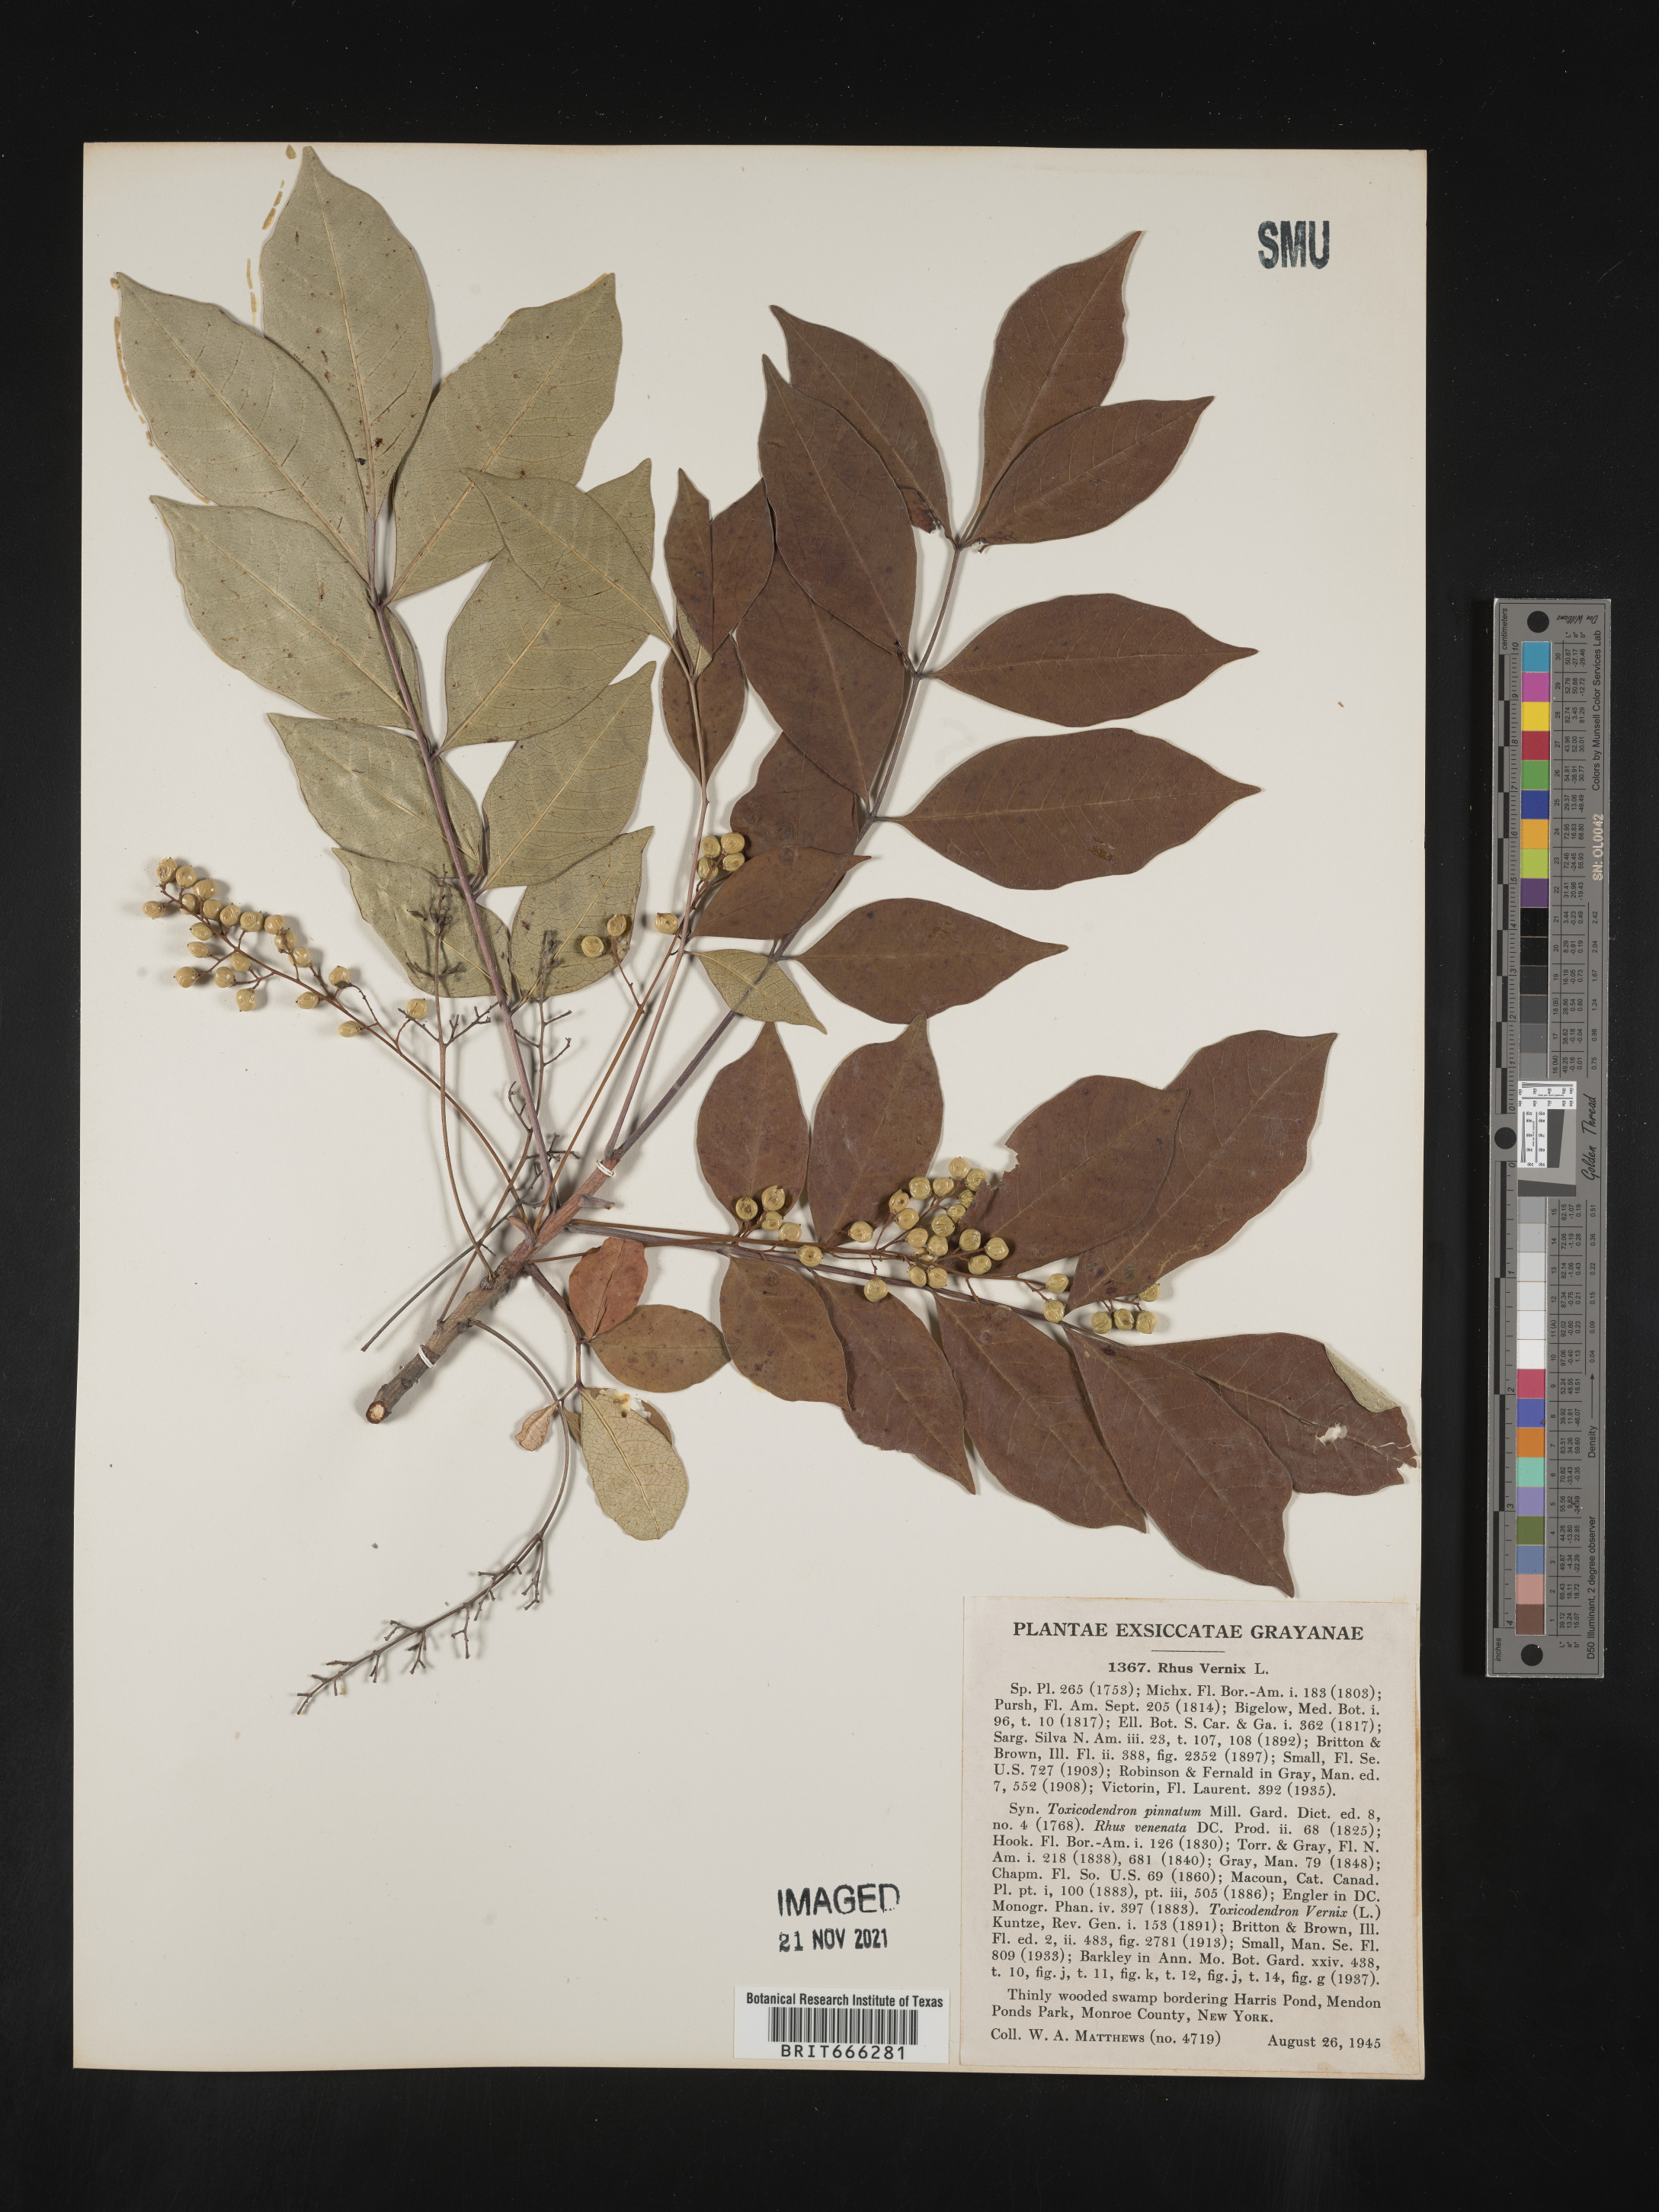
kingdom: Plantae
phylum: Tracheophyta
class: Magnoliopsida
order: Sapindales
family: Anacardiaceae
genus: Toxicodendron
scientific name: Toxicodendron vernix
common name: Poison sumac
